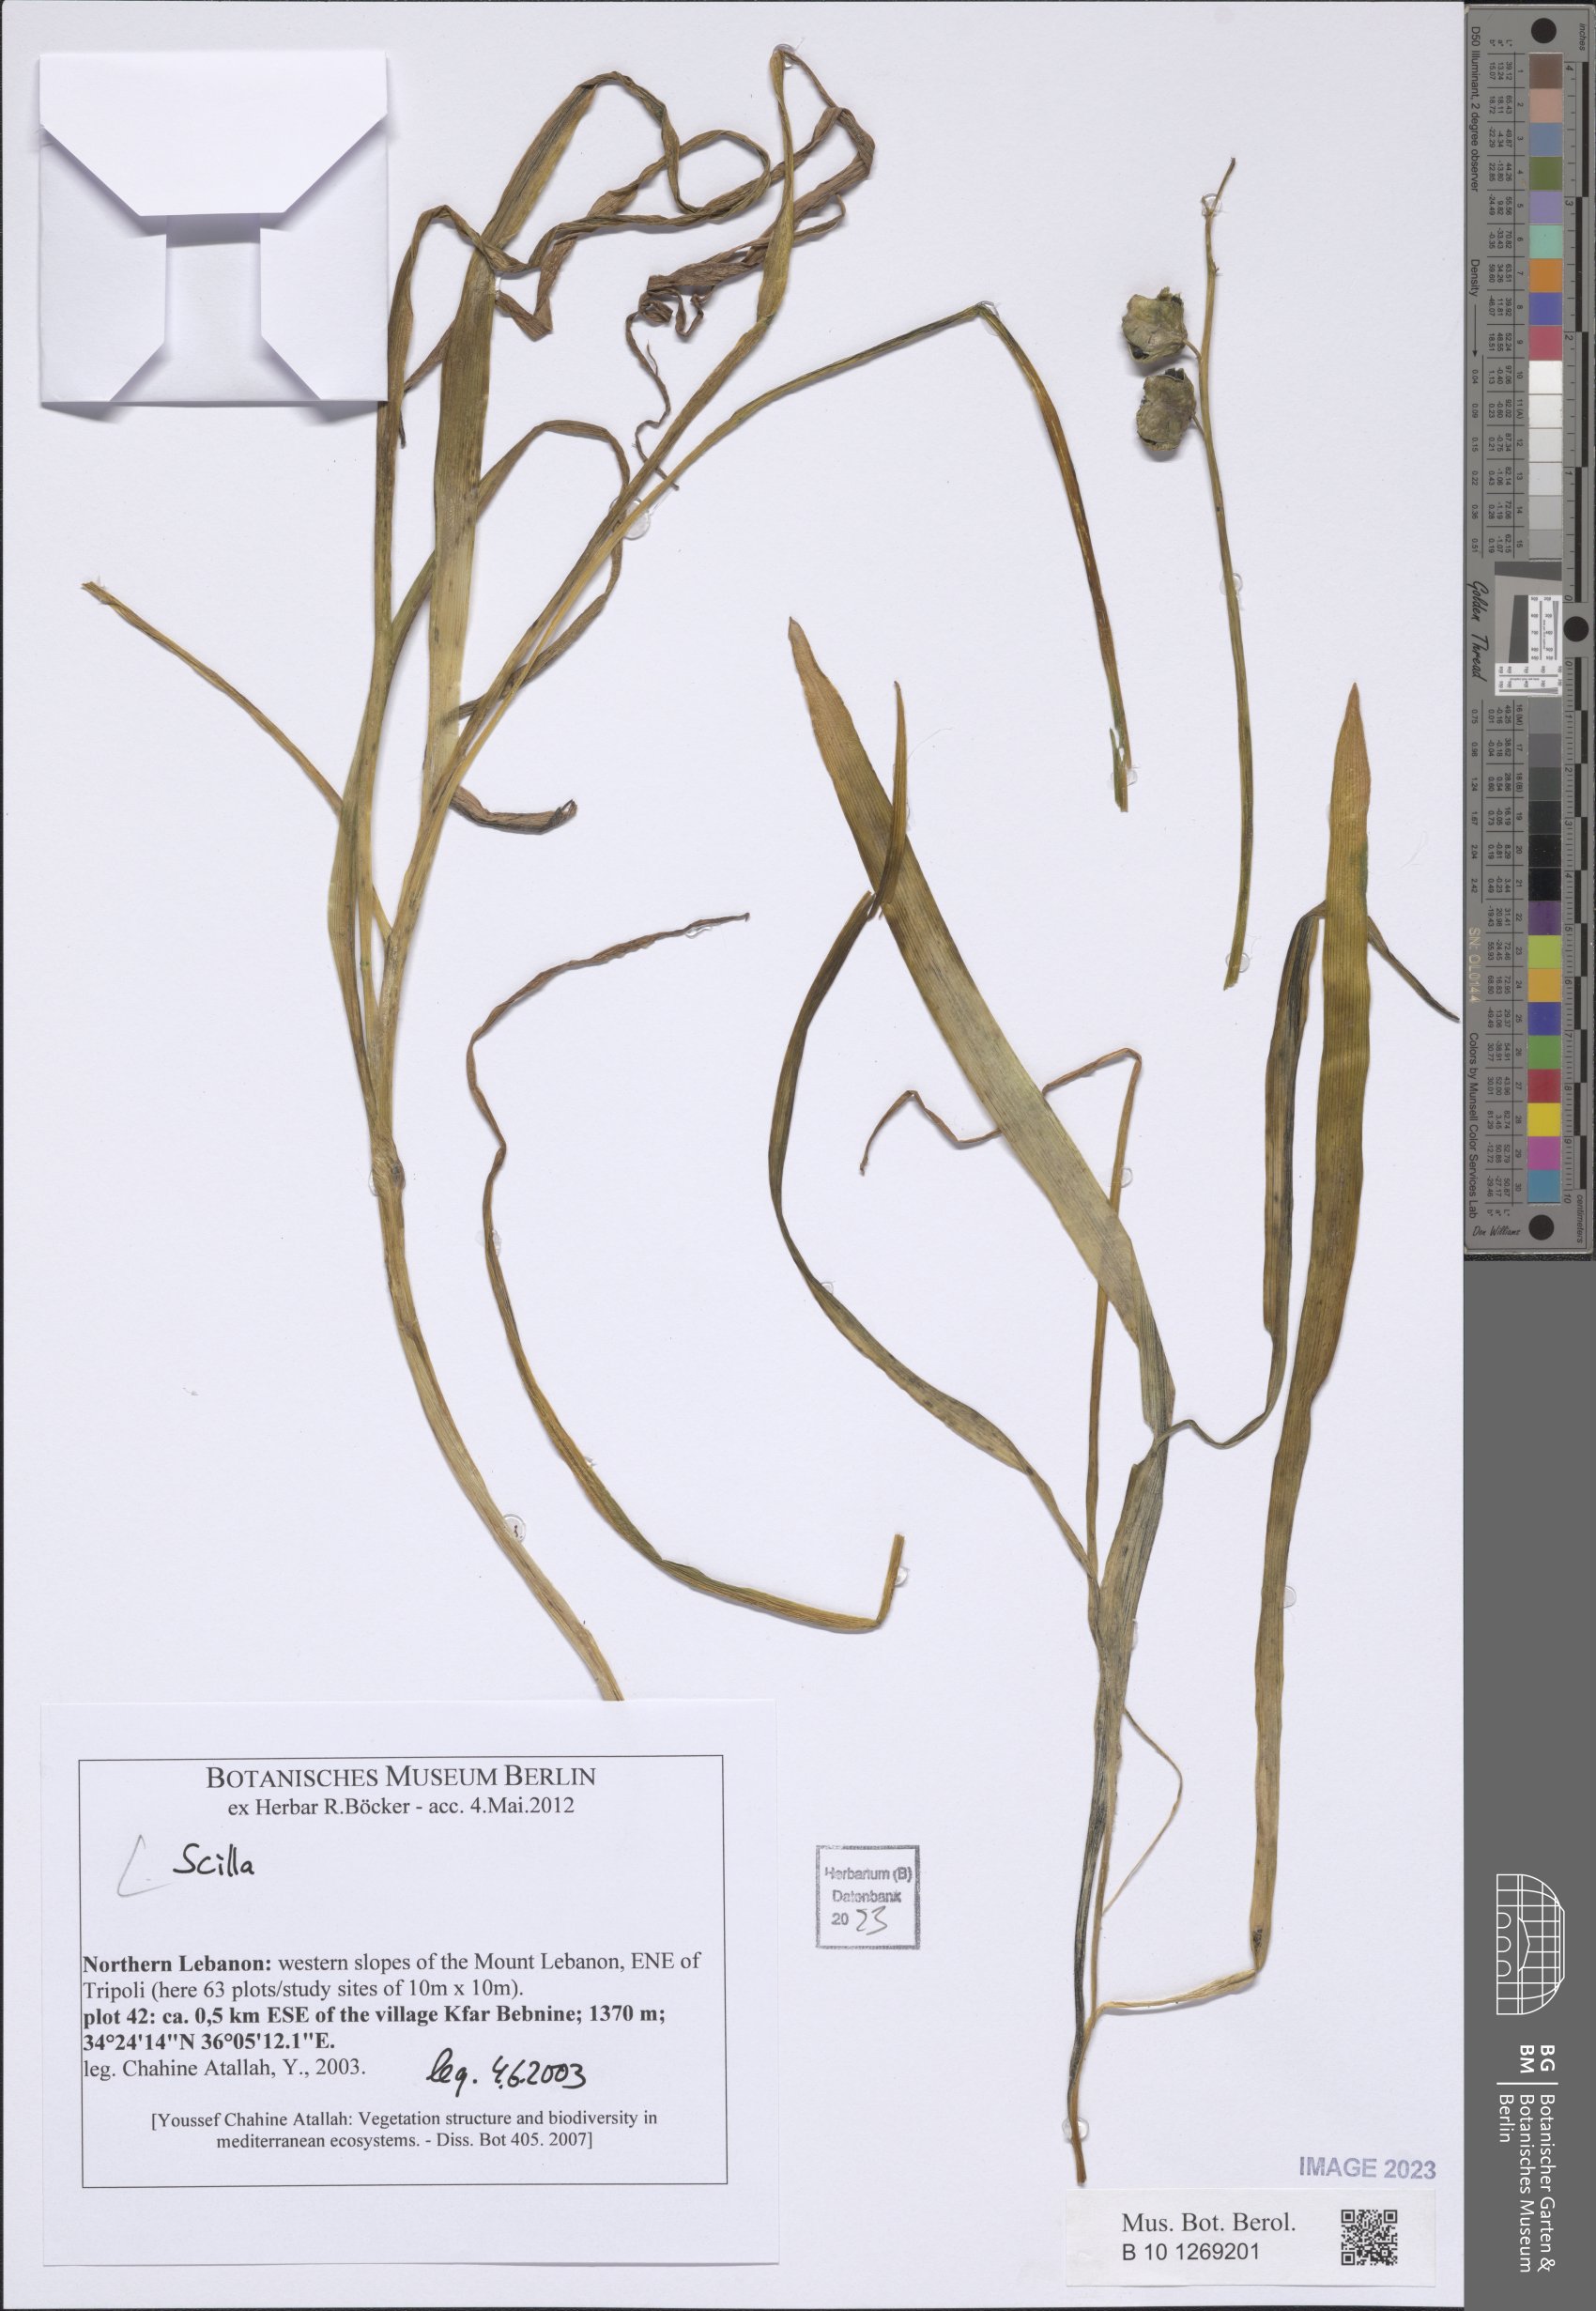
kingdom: Plantae
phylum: Tracheophyta
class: Liliopsida
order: Asparagales
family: Asparagaceae
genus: Scilla
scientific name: Scilla
